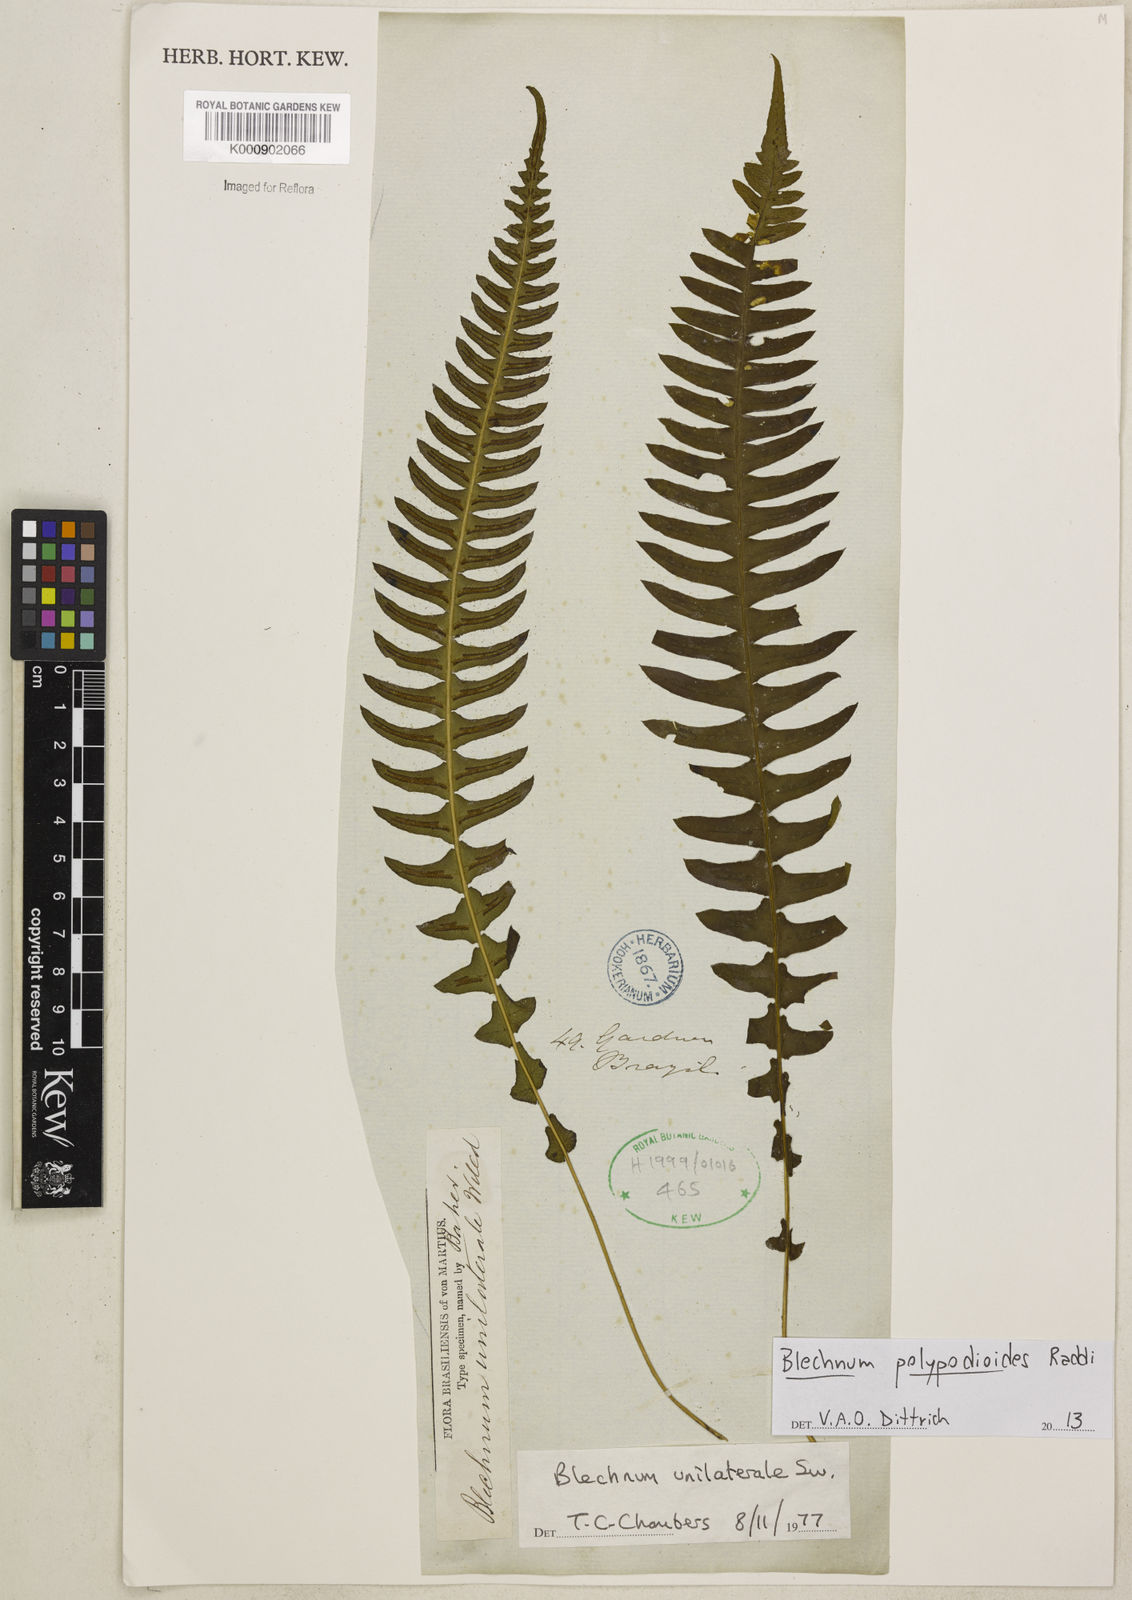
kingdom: Plantae
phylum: Tracheophyta
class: Polypodiopsida
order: Polypodiales
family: Blechnaceae
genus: Blechnum
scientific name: Blechnum polypodioides
